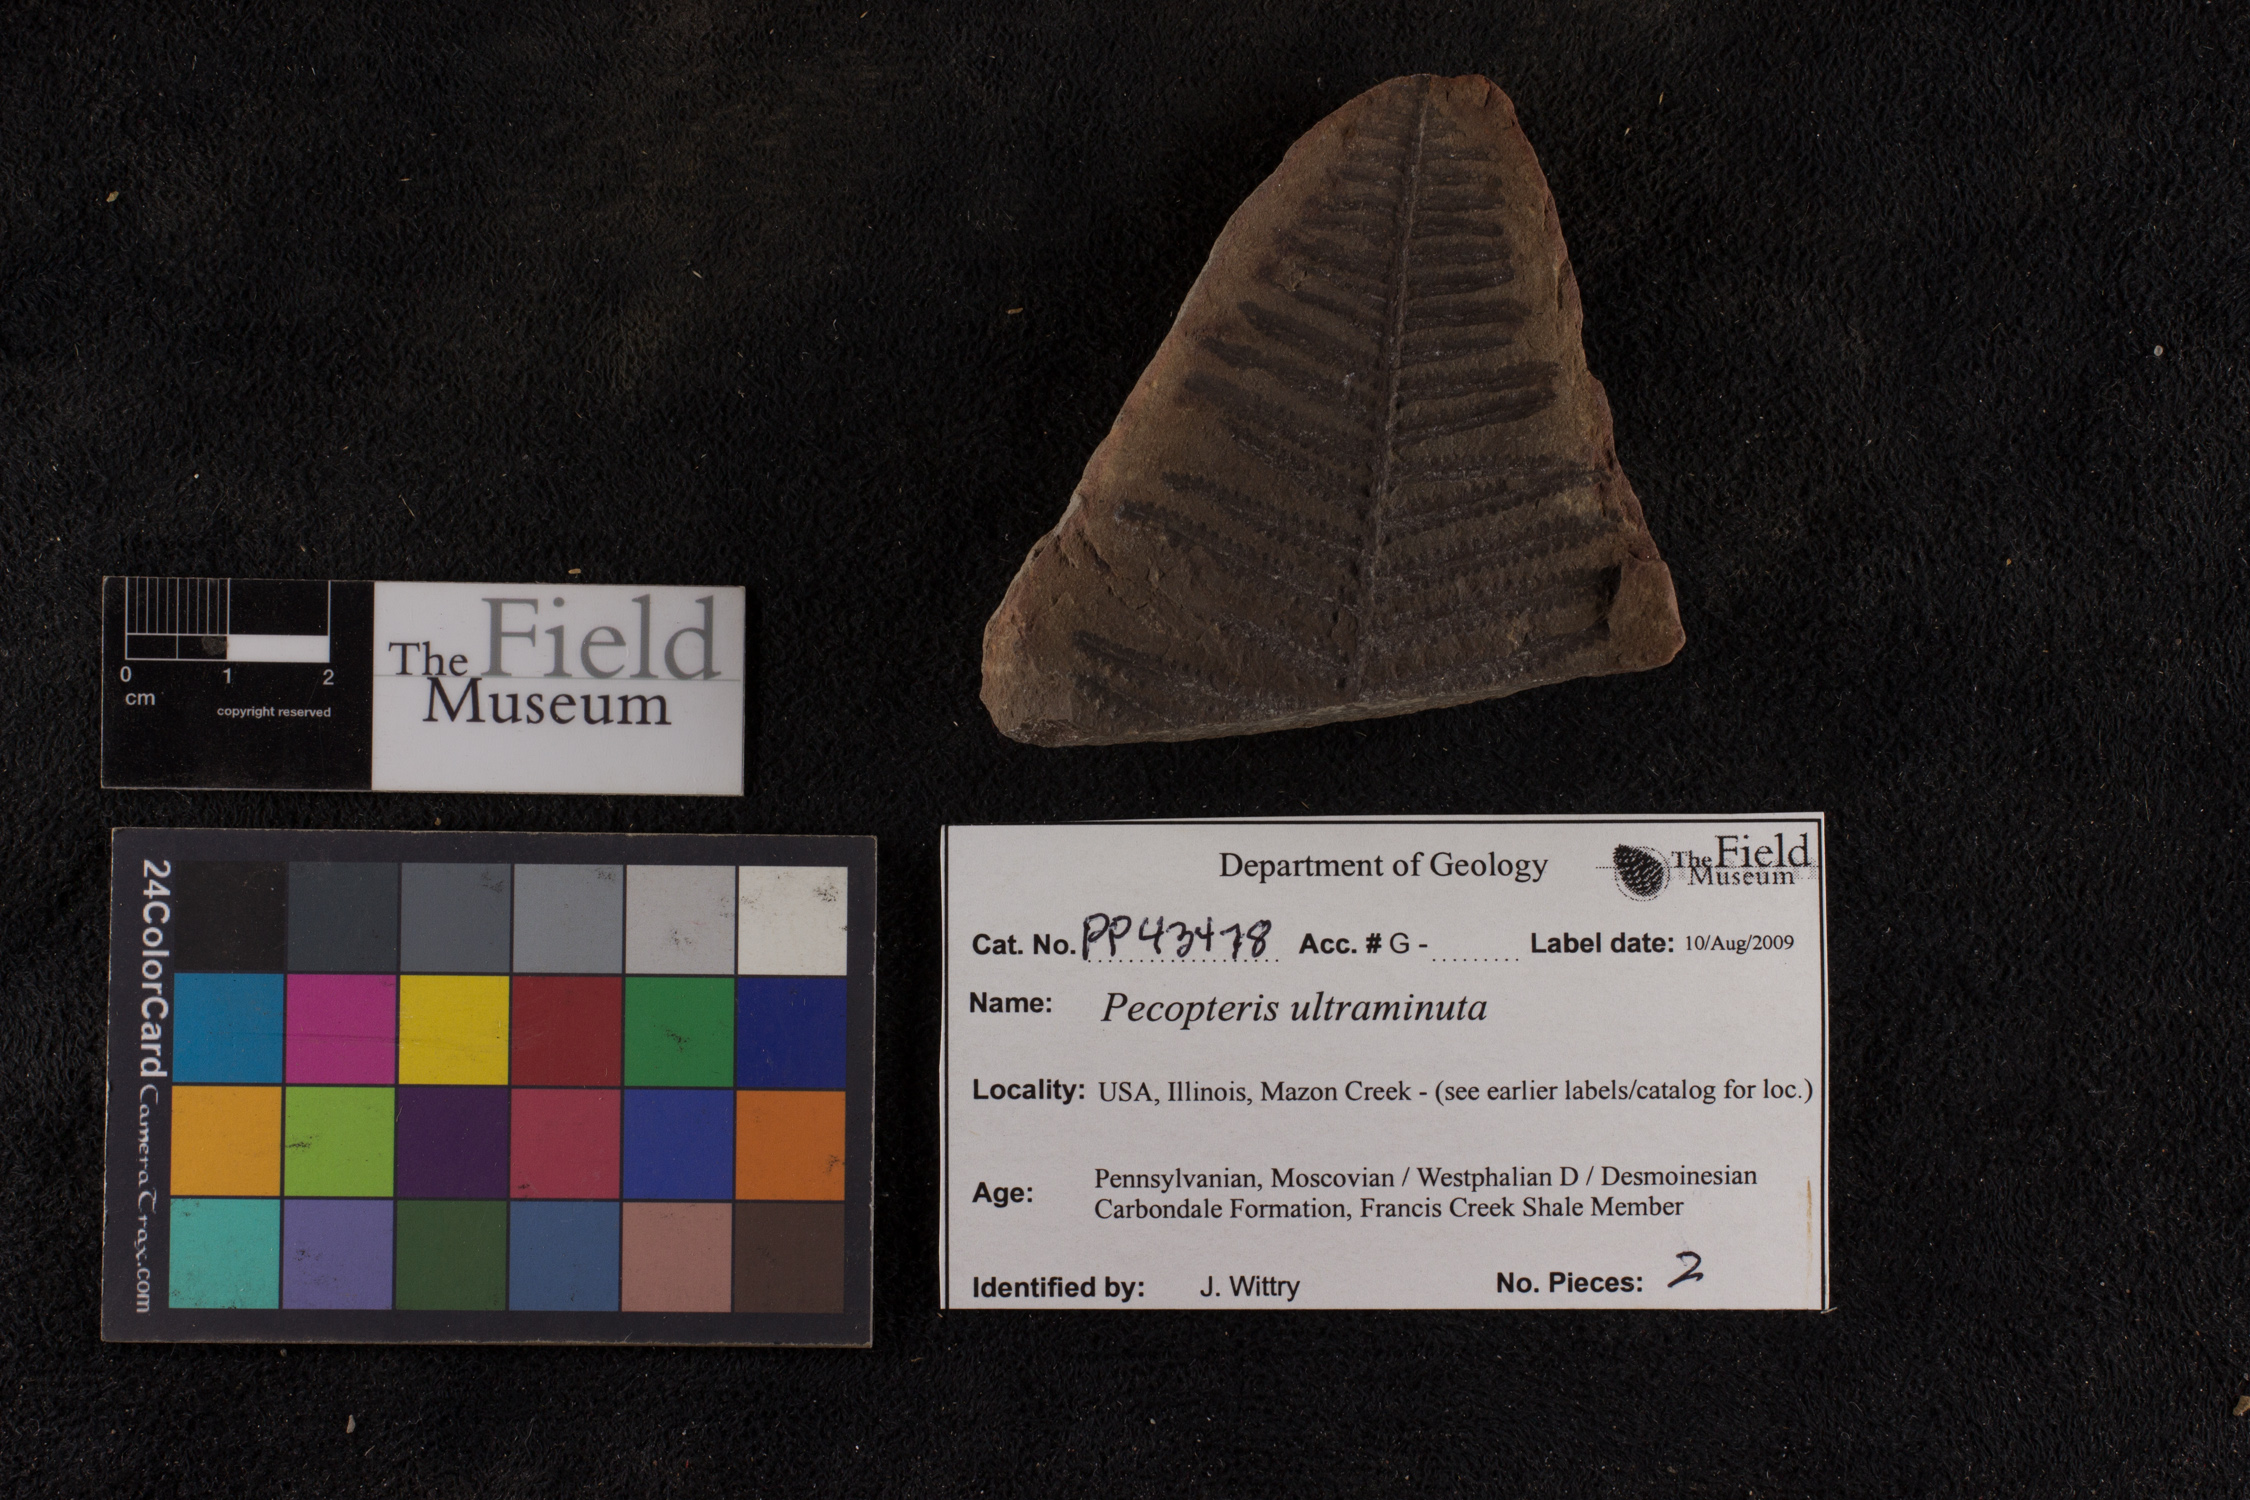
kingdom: Plantae
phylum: Tracheophyta
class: Polypodiopsida
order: Marattiales
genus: Cyathocarpus
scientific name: Cyathocarpus
